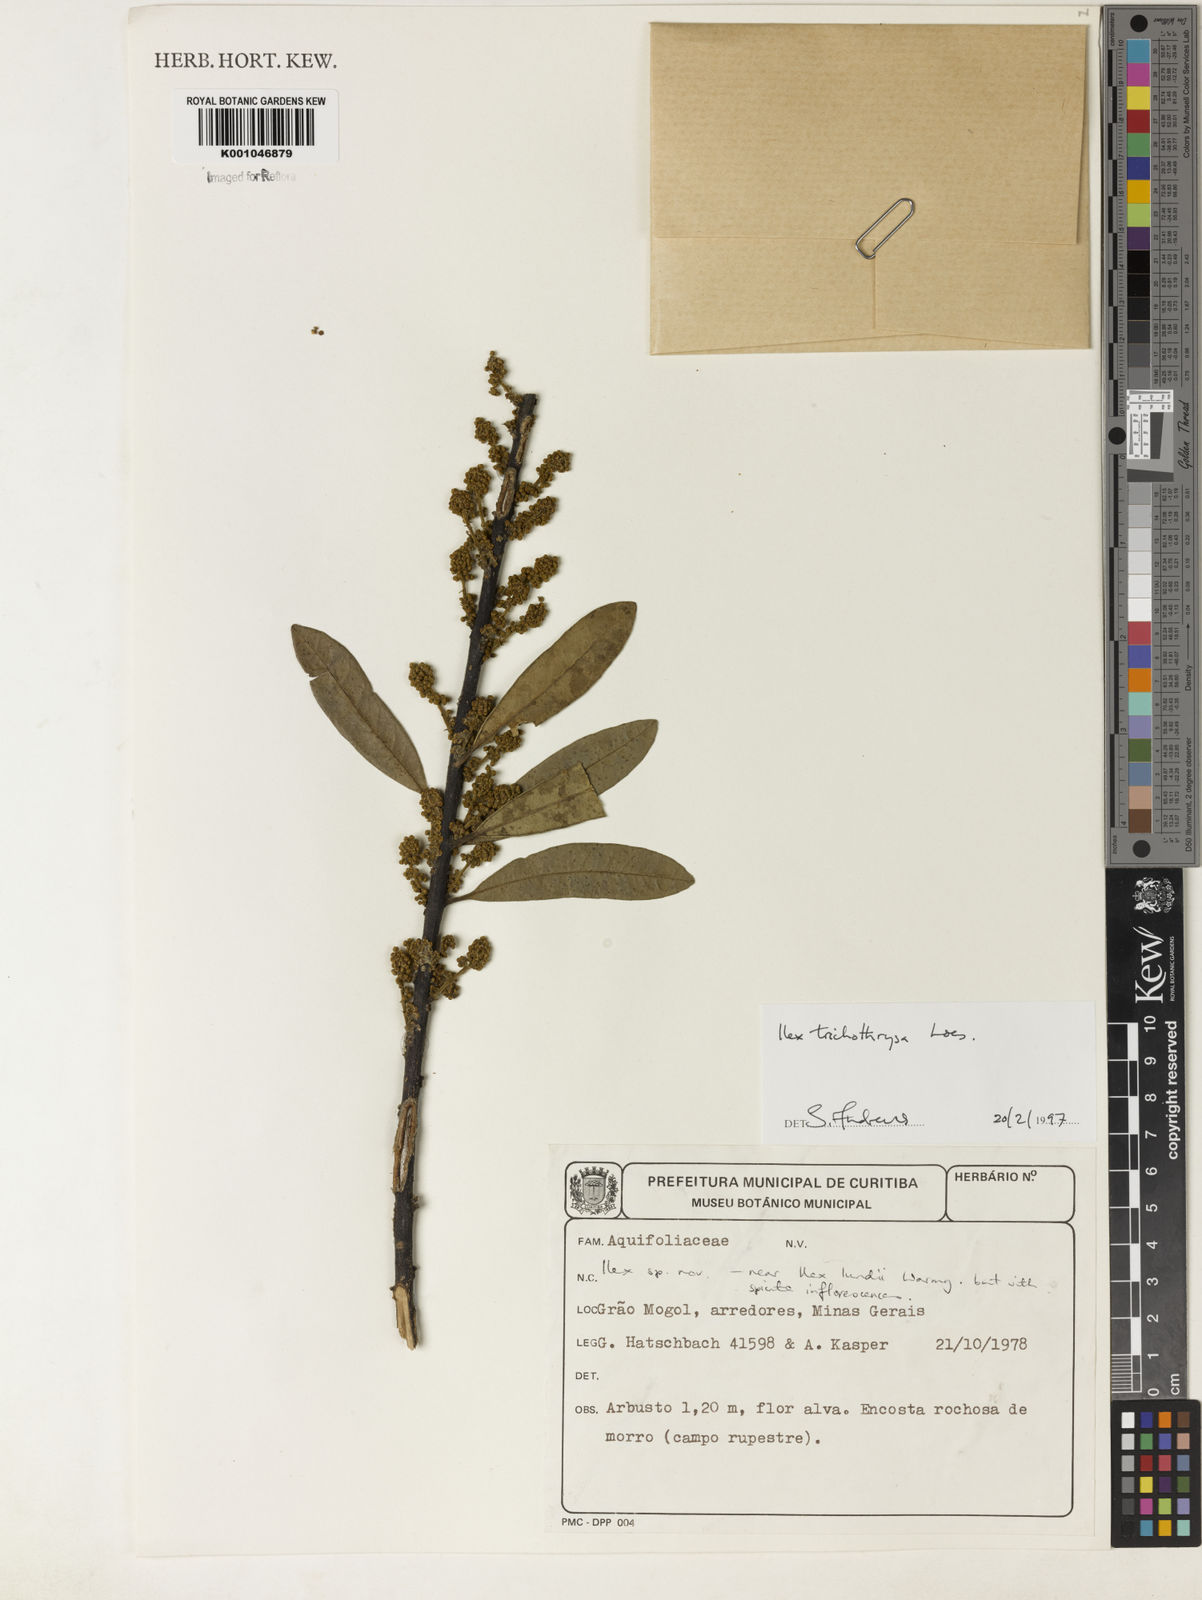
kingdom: Plantae
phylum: Tracheophyta
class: Magnoliopsida
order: Aquifoliales
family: Aquifoliaceae
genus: Ilex
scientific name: Ilex trichothyrsa
